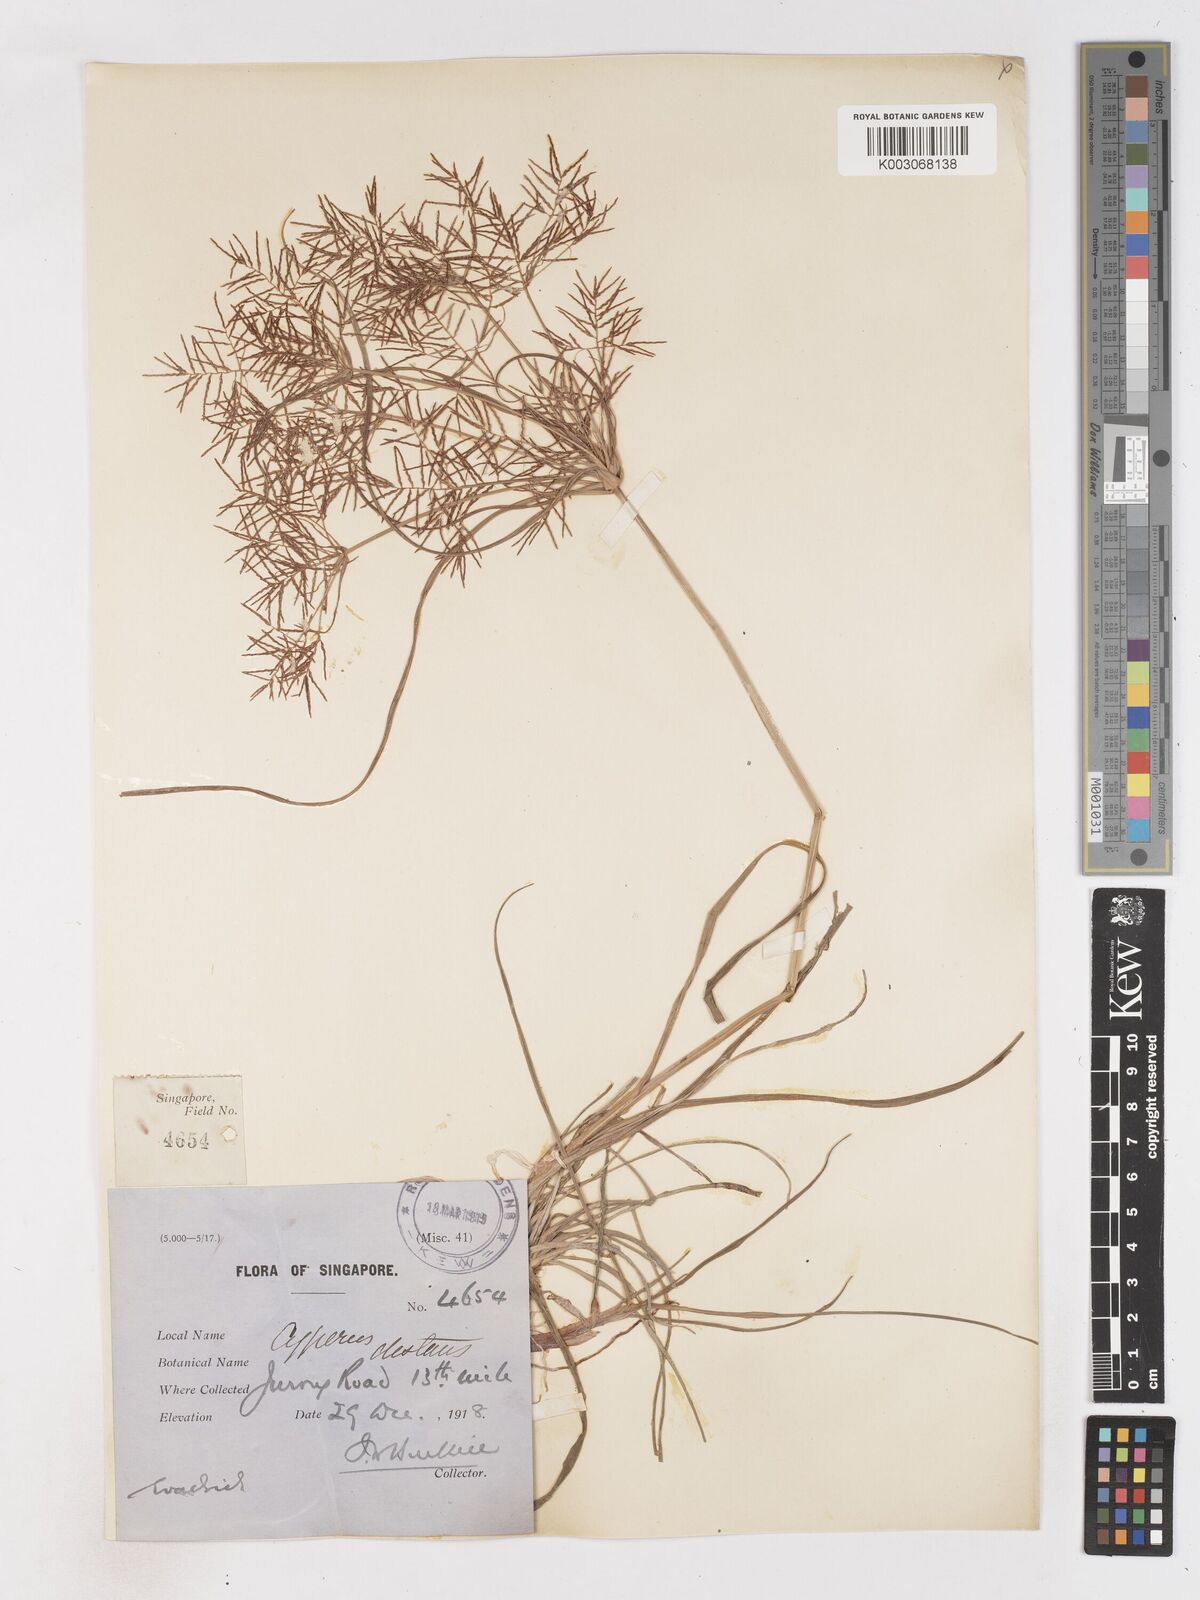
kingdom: Plantae
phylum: Tracheophyta
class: Liliopsida
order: Poales
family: Cyperaceae
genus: Cyperus
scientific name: Cyperus distans
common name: Slender cyperus
